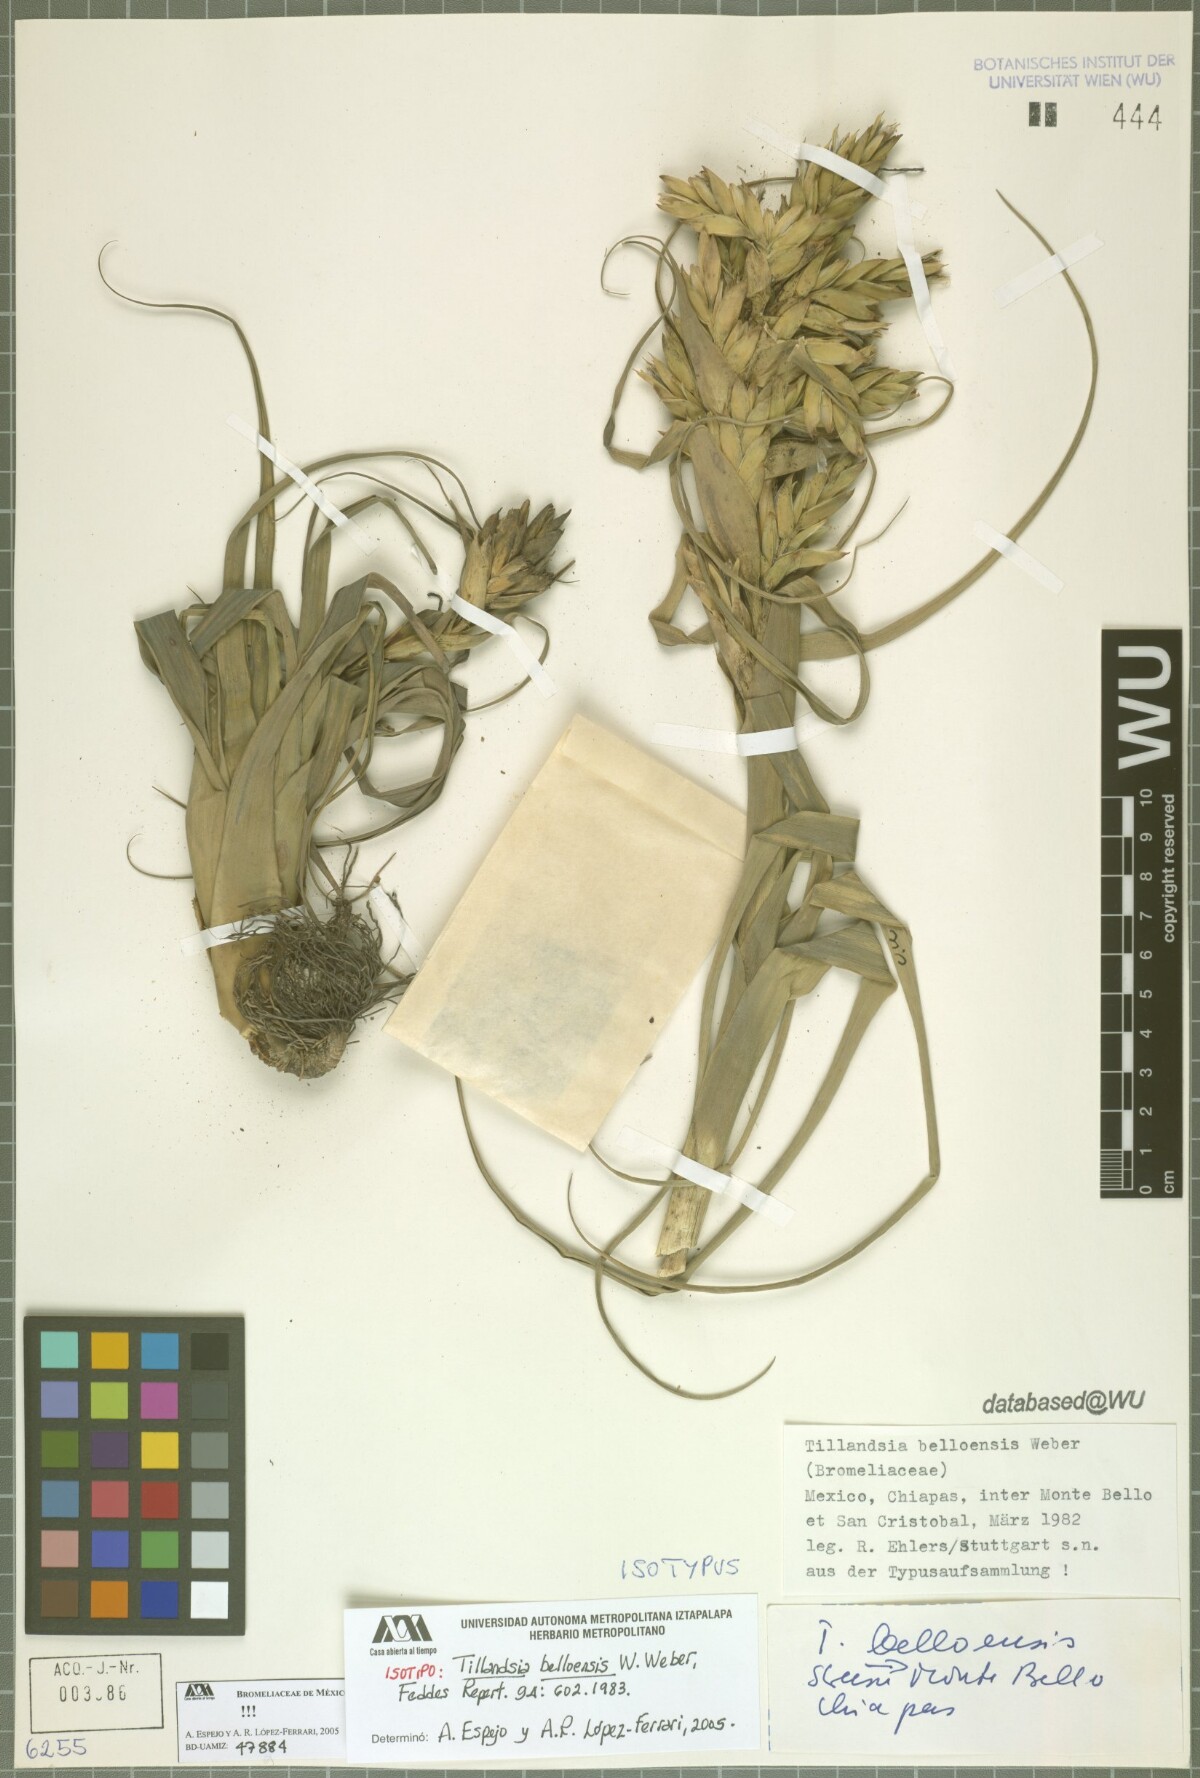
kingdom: Plantae
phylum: Tracheophyta
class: Liliopsida
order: Poales
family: Bromeliaceae
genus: Tillandsia
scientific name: Tillandsia belloensis
